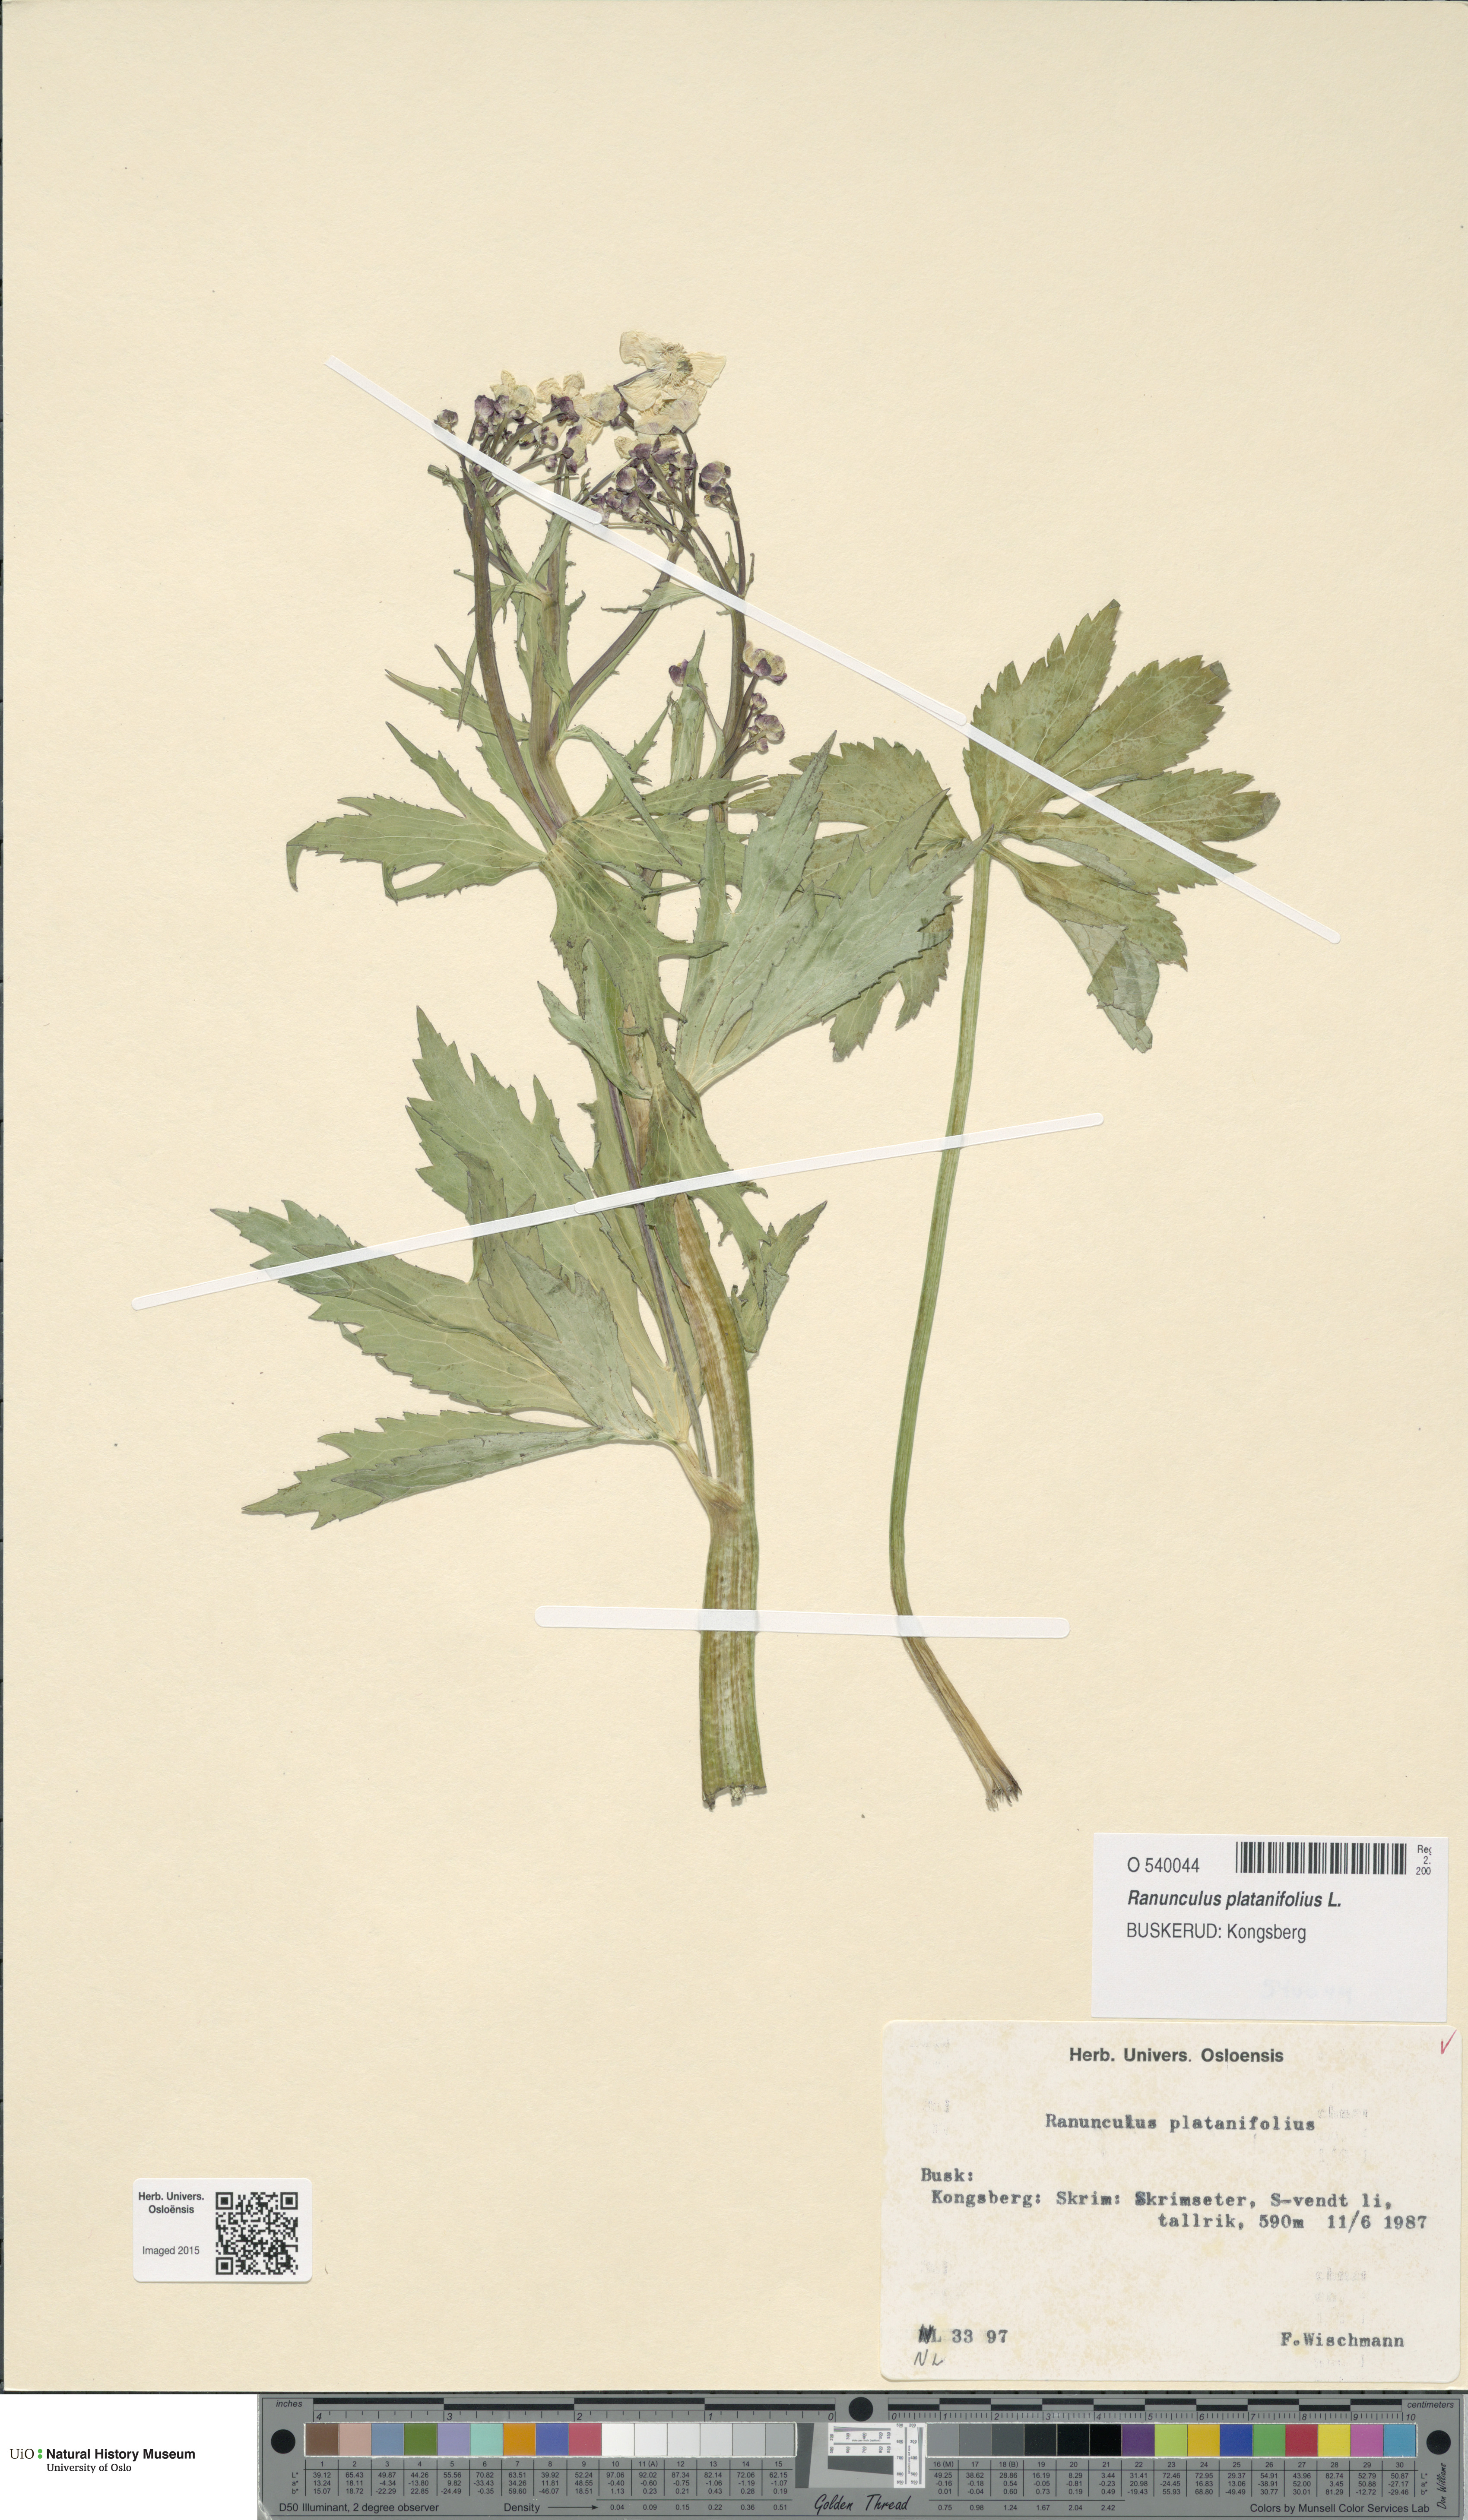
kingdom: Plantae
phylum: Tracheophyta
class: Magnoliopsida
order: Ranunculales
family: Ranunculaceae
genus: Ranunculus
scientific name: Ranunculus platanifolius
